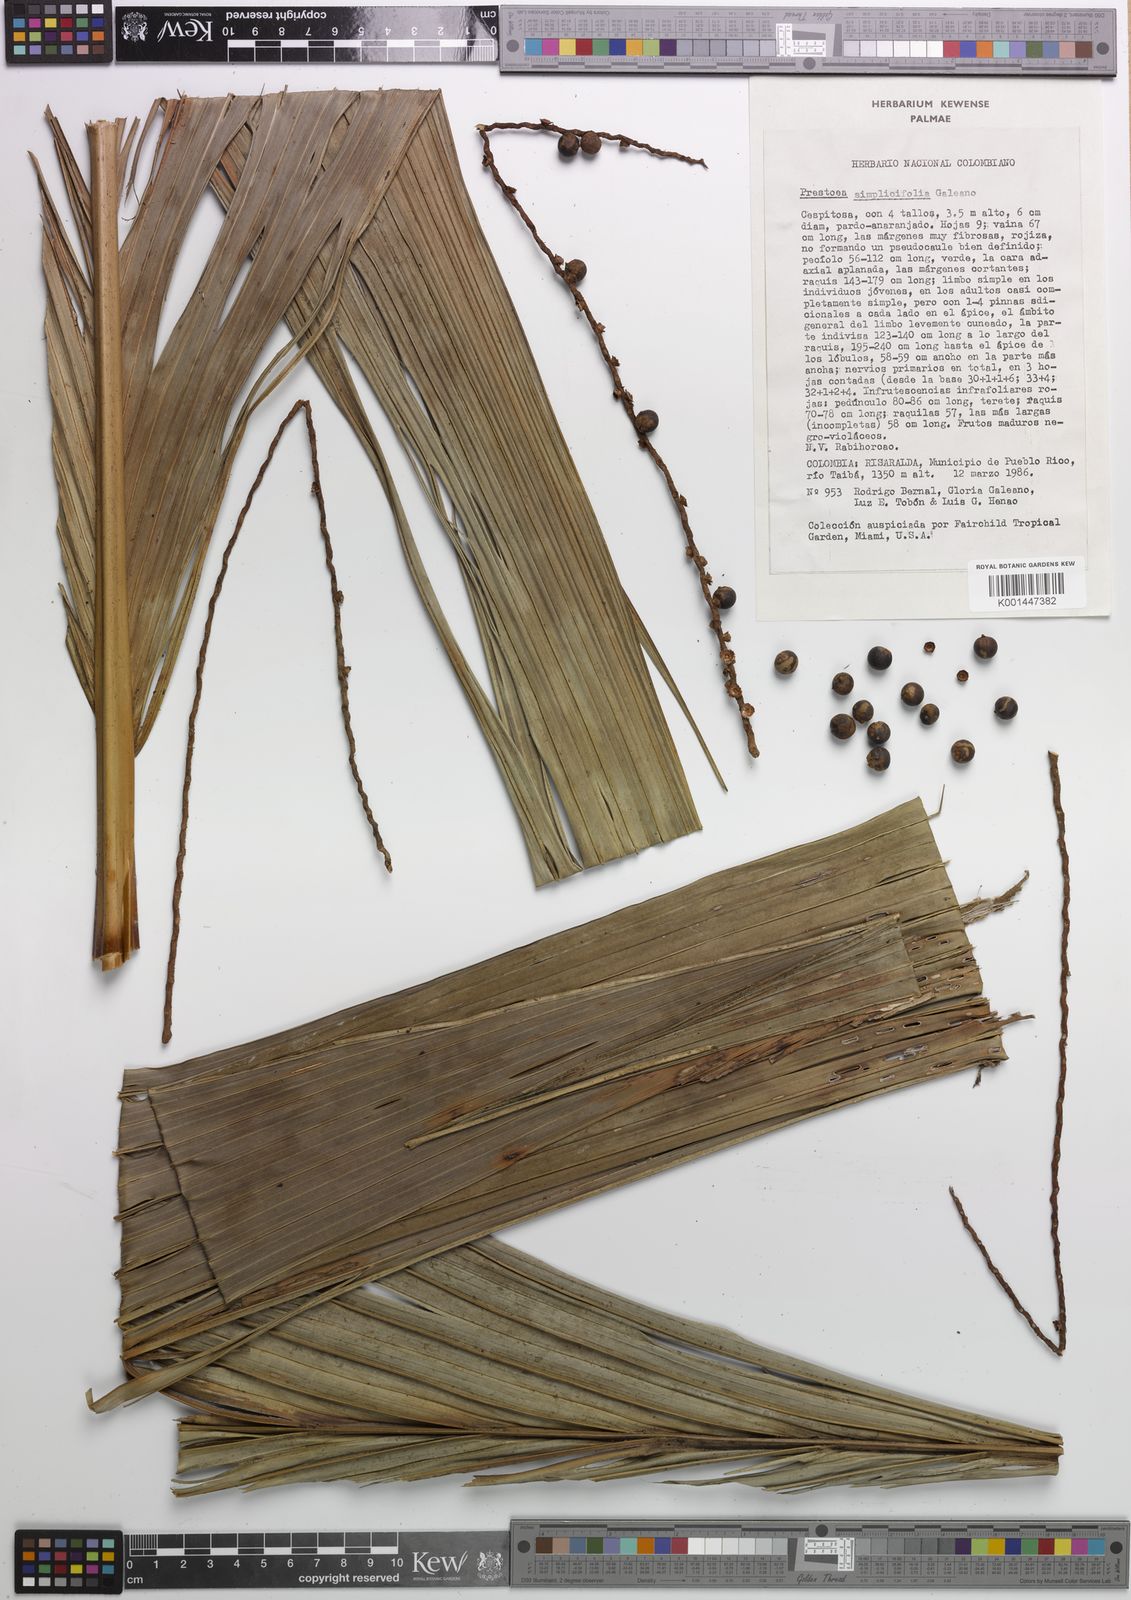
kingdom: Plantae
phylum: Tracheophyta
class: Liliopsida
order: Arecales
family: Arecaceae
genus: Prestoea
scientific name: Prestoea simplicifolia
